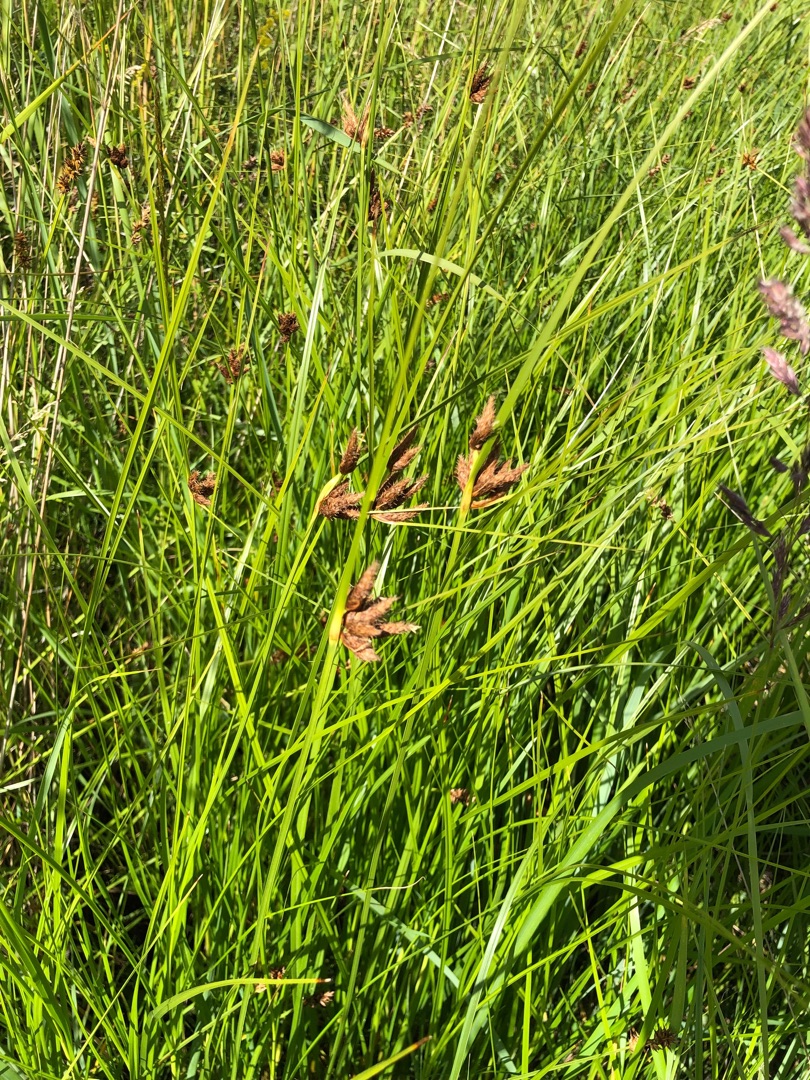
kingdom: Plantae
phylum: Tracheophyta
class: Liliopsida
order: Poales
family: Cyperaceae
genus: Bolboschoenus
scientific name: Bolboschoenus maritimus
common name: Strand-kogleaks
